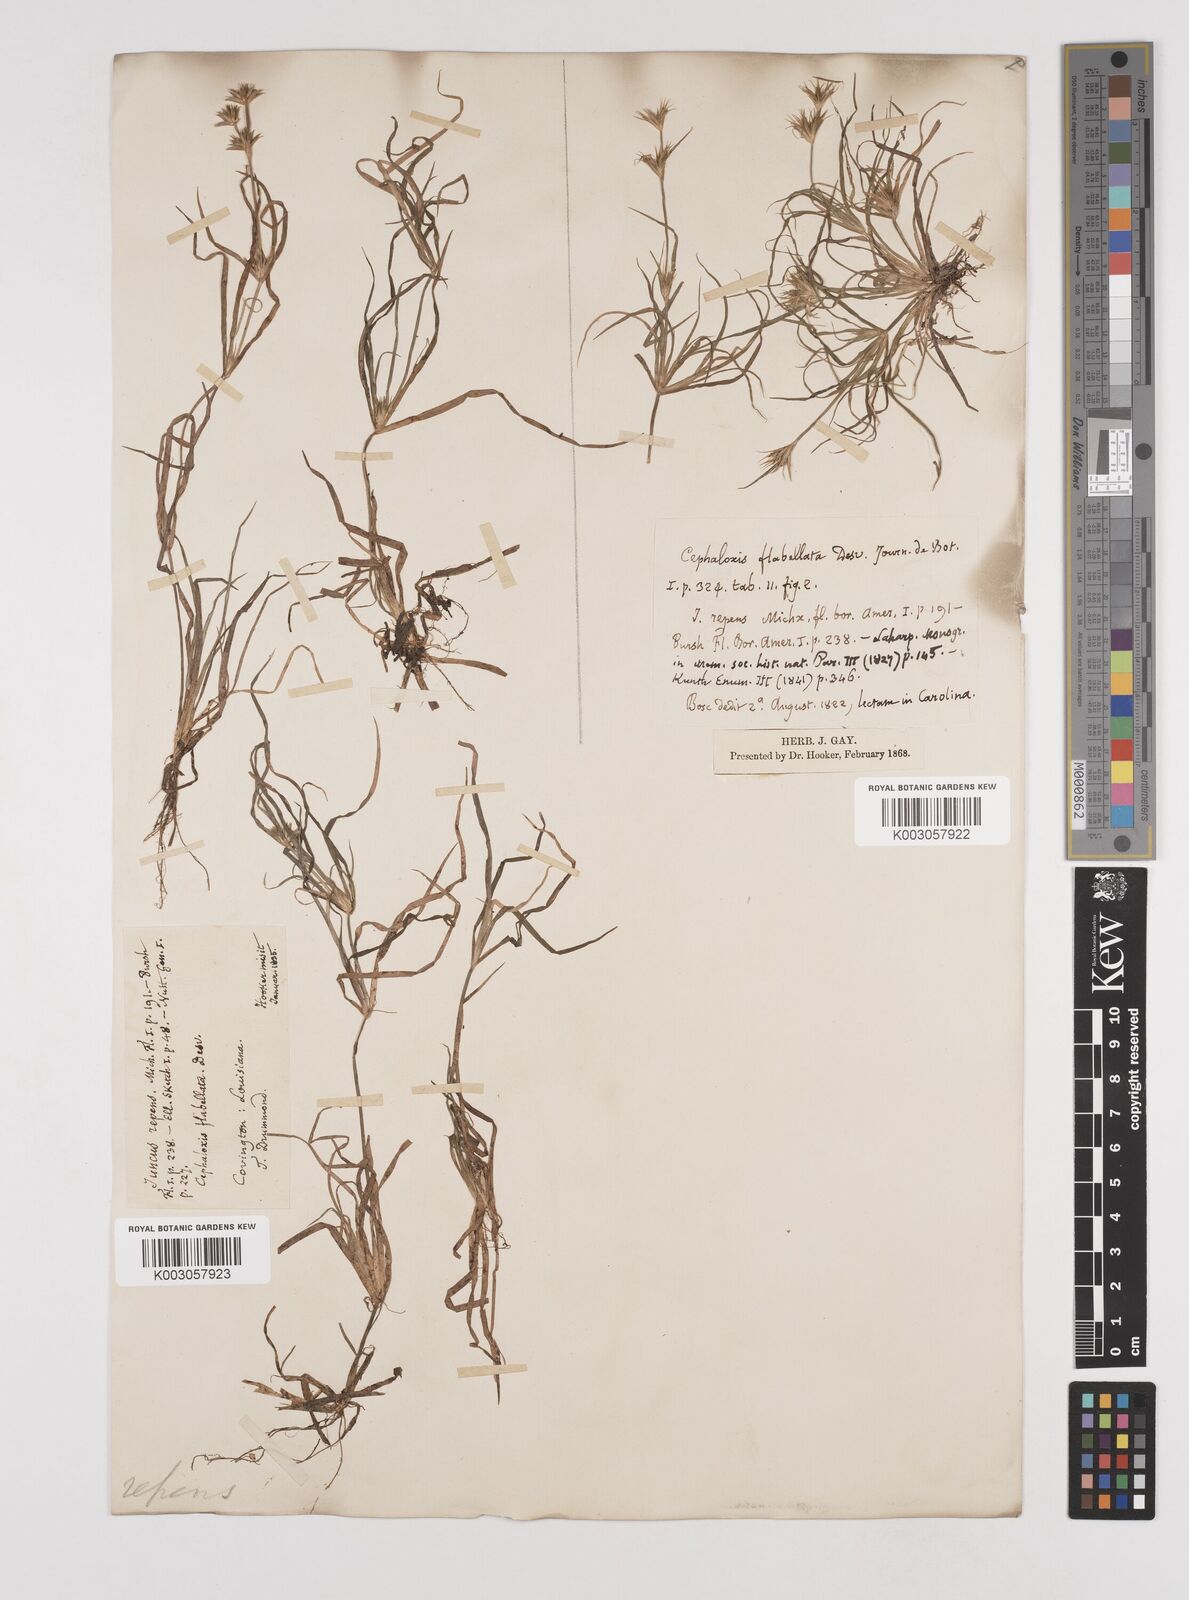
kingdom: Plantae
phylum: Tracheophyta
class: Liliopsida
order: Poales
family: Juncaceae
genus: Juncus
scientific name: Juncus repens
